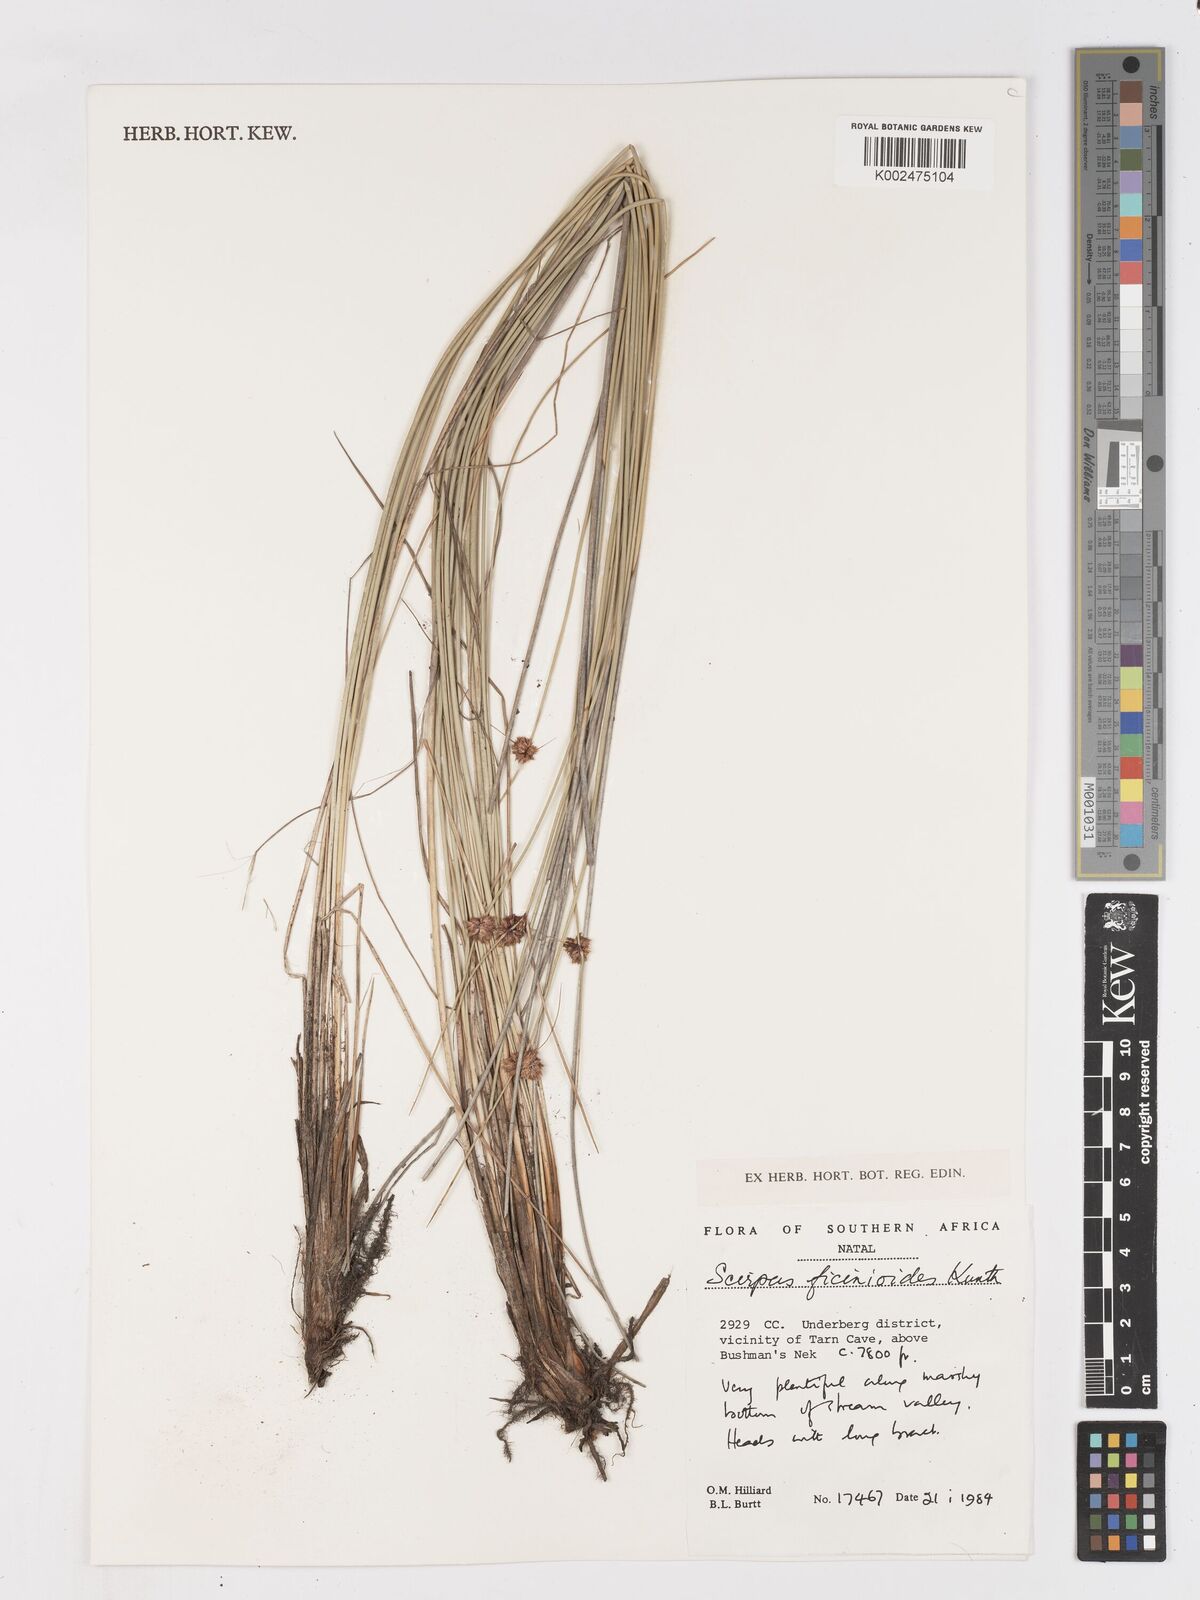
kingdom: Plantae
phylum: Tracheophyta
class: Liliopsida
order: Poales
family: Cyperaceae
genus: Ficinia
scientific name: Ficinia filiformis
